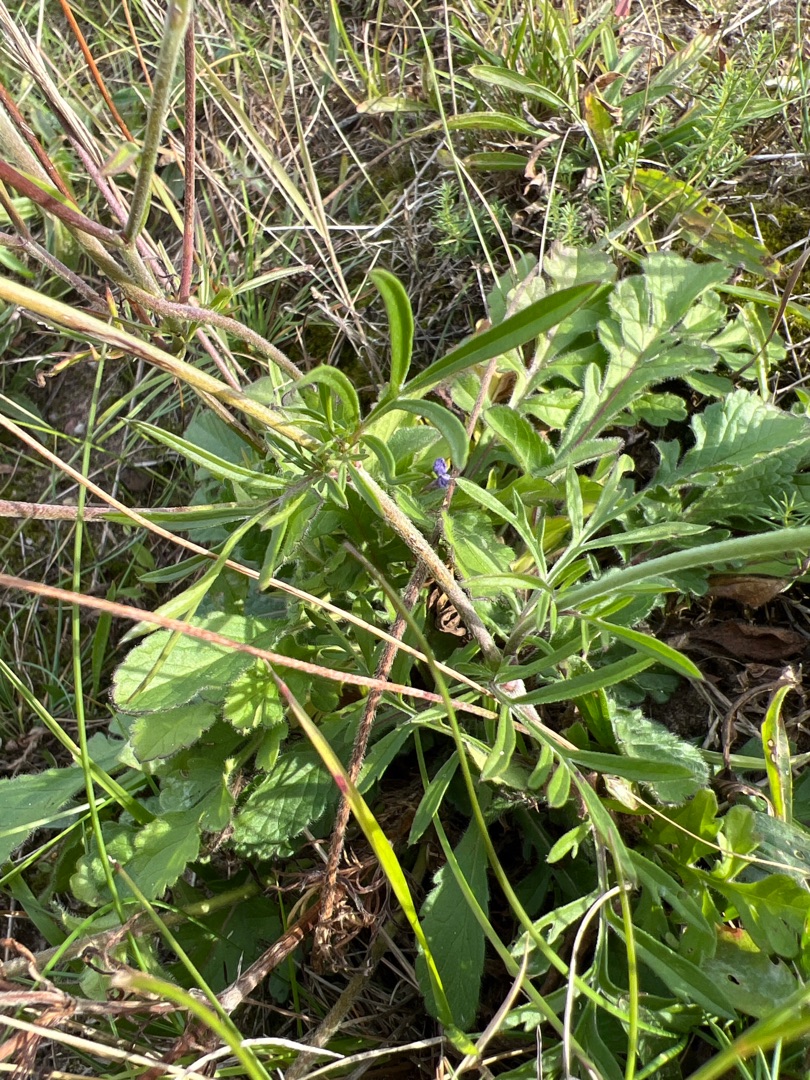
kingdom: Plantae
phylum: Tracheophyta
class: Magnoliopsida
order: Dipsacales
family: Caprifoliaceae
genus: Scabiosa
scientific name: Scabiosa columbaria
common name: Due-skabiose
